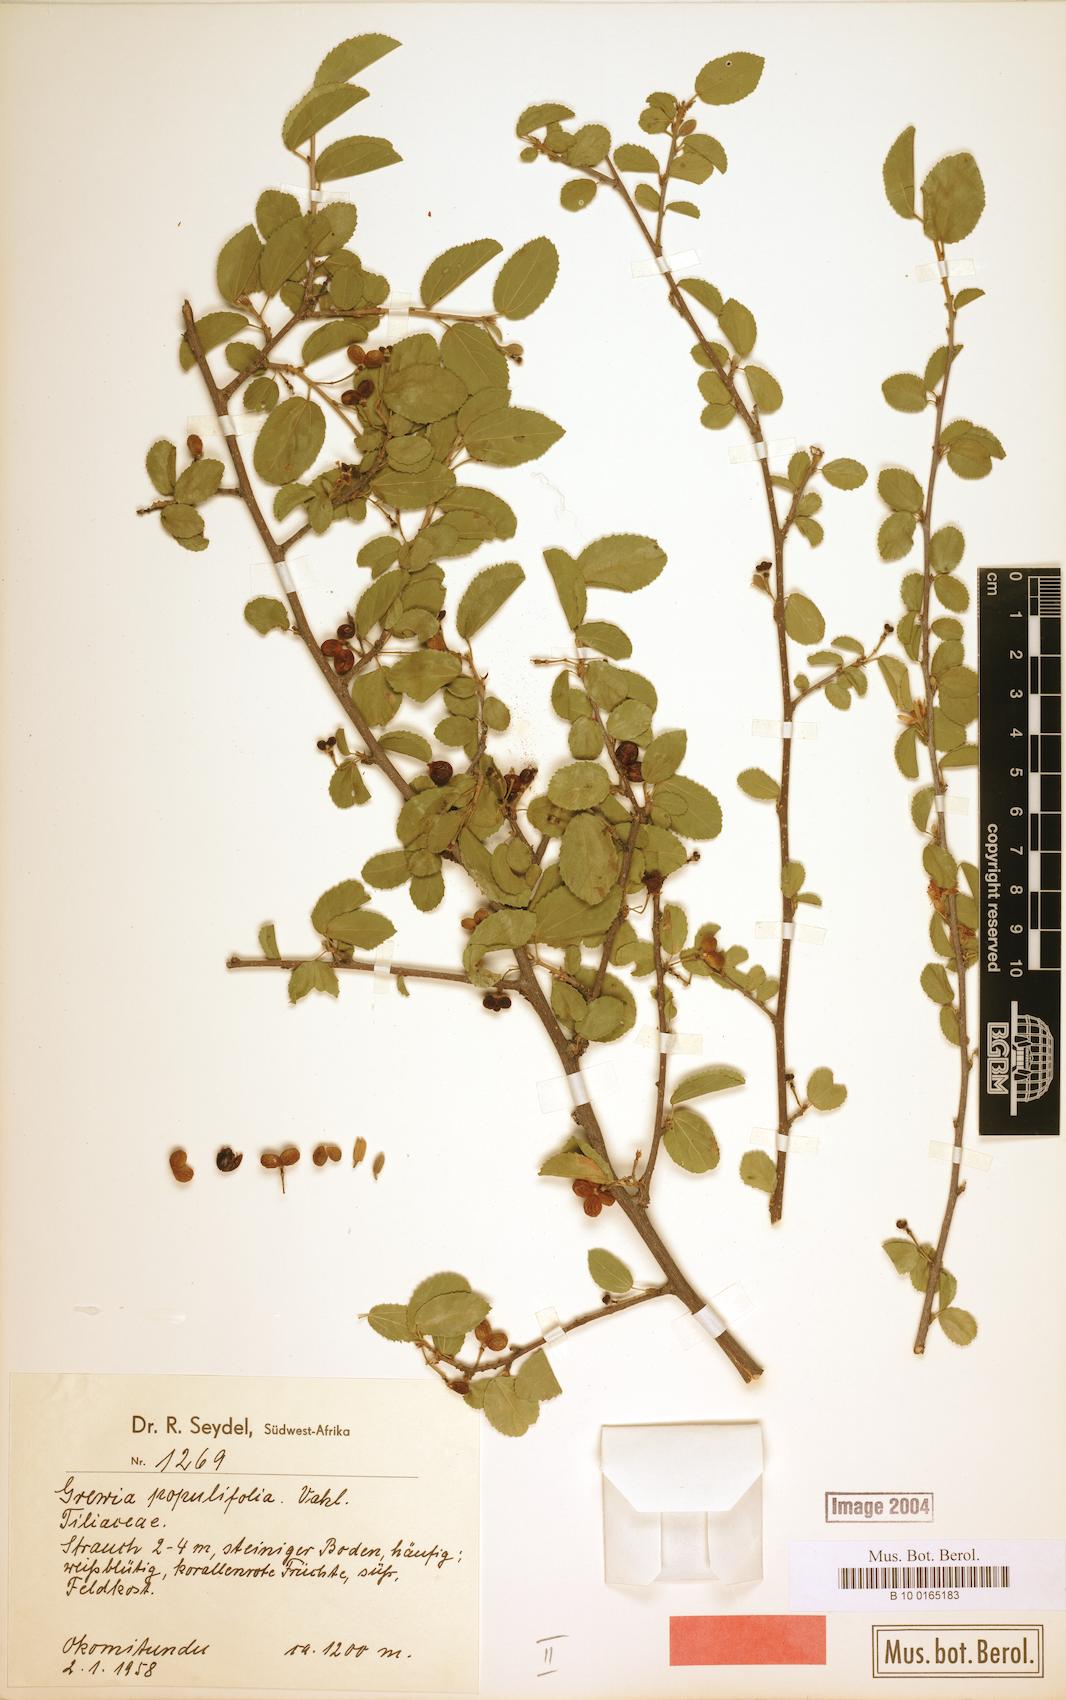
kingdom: Plantae
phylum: Tracheophyta
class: Magnoliopsida
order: Malvales
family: Malvaceae
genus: Grewia
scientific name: Grewia
